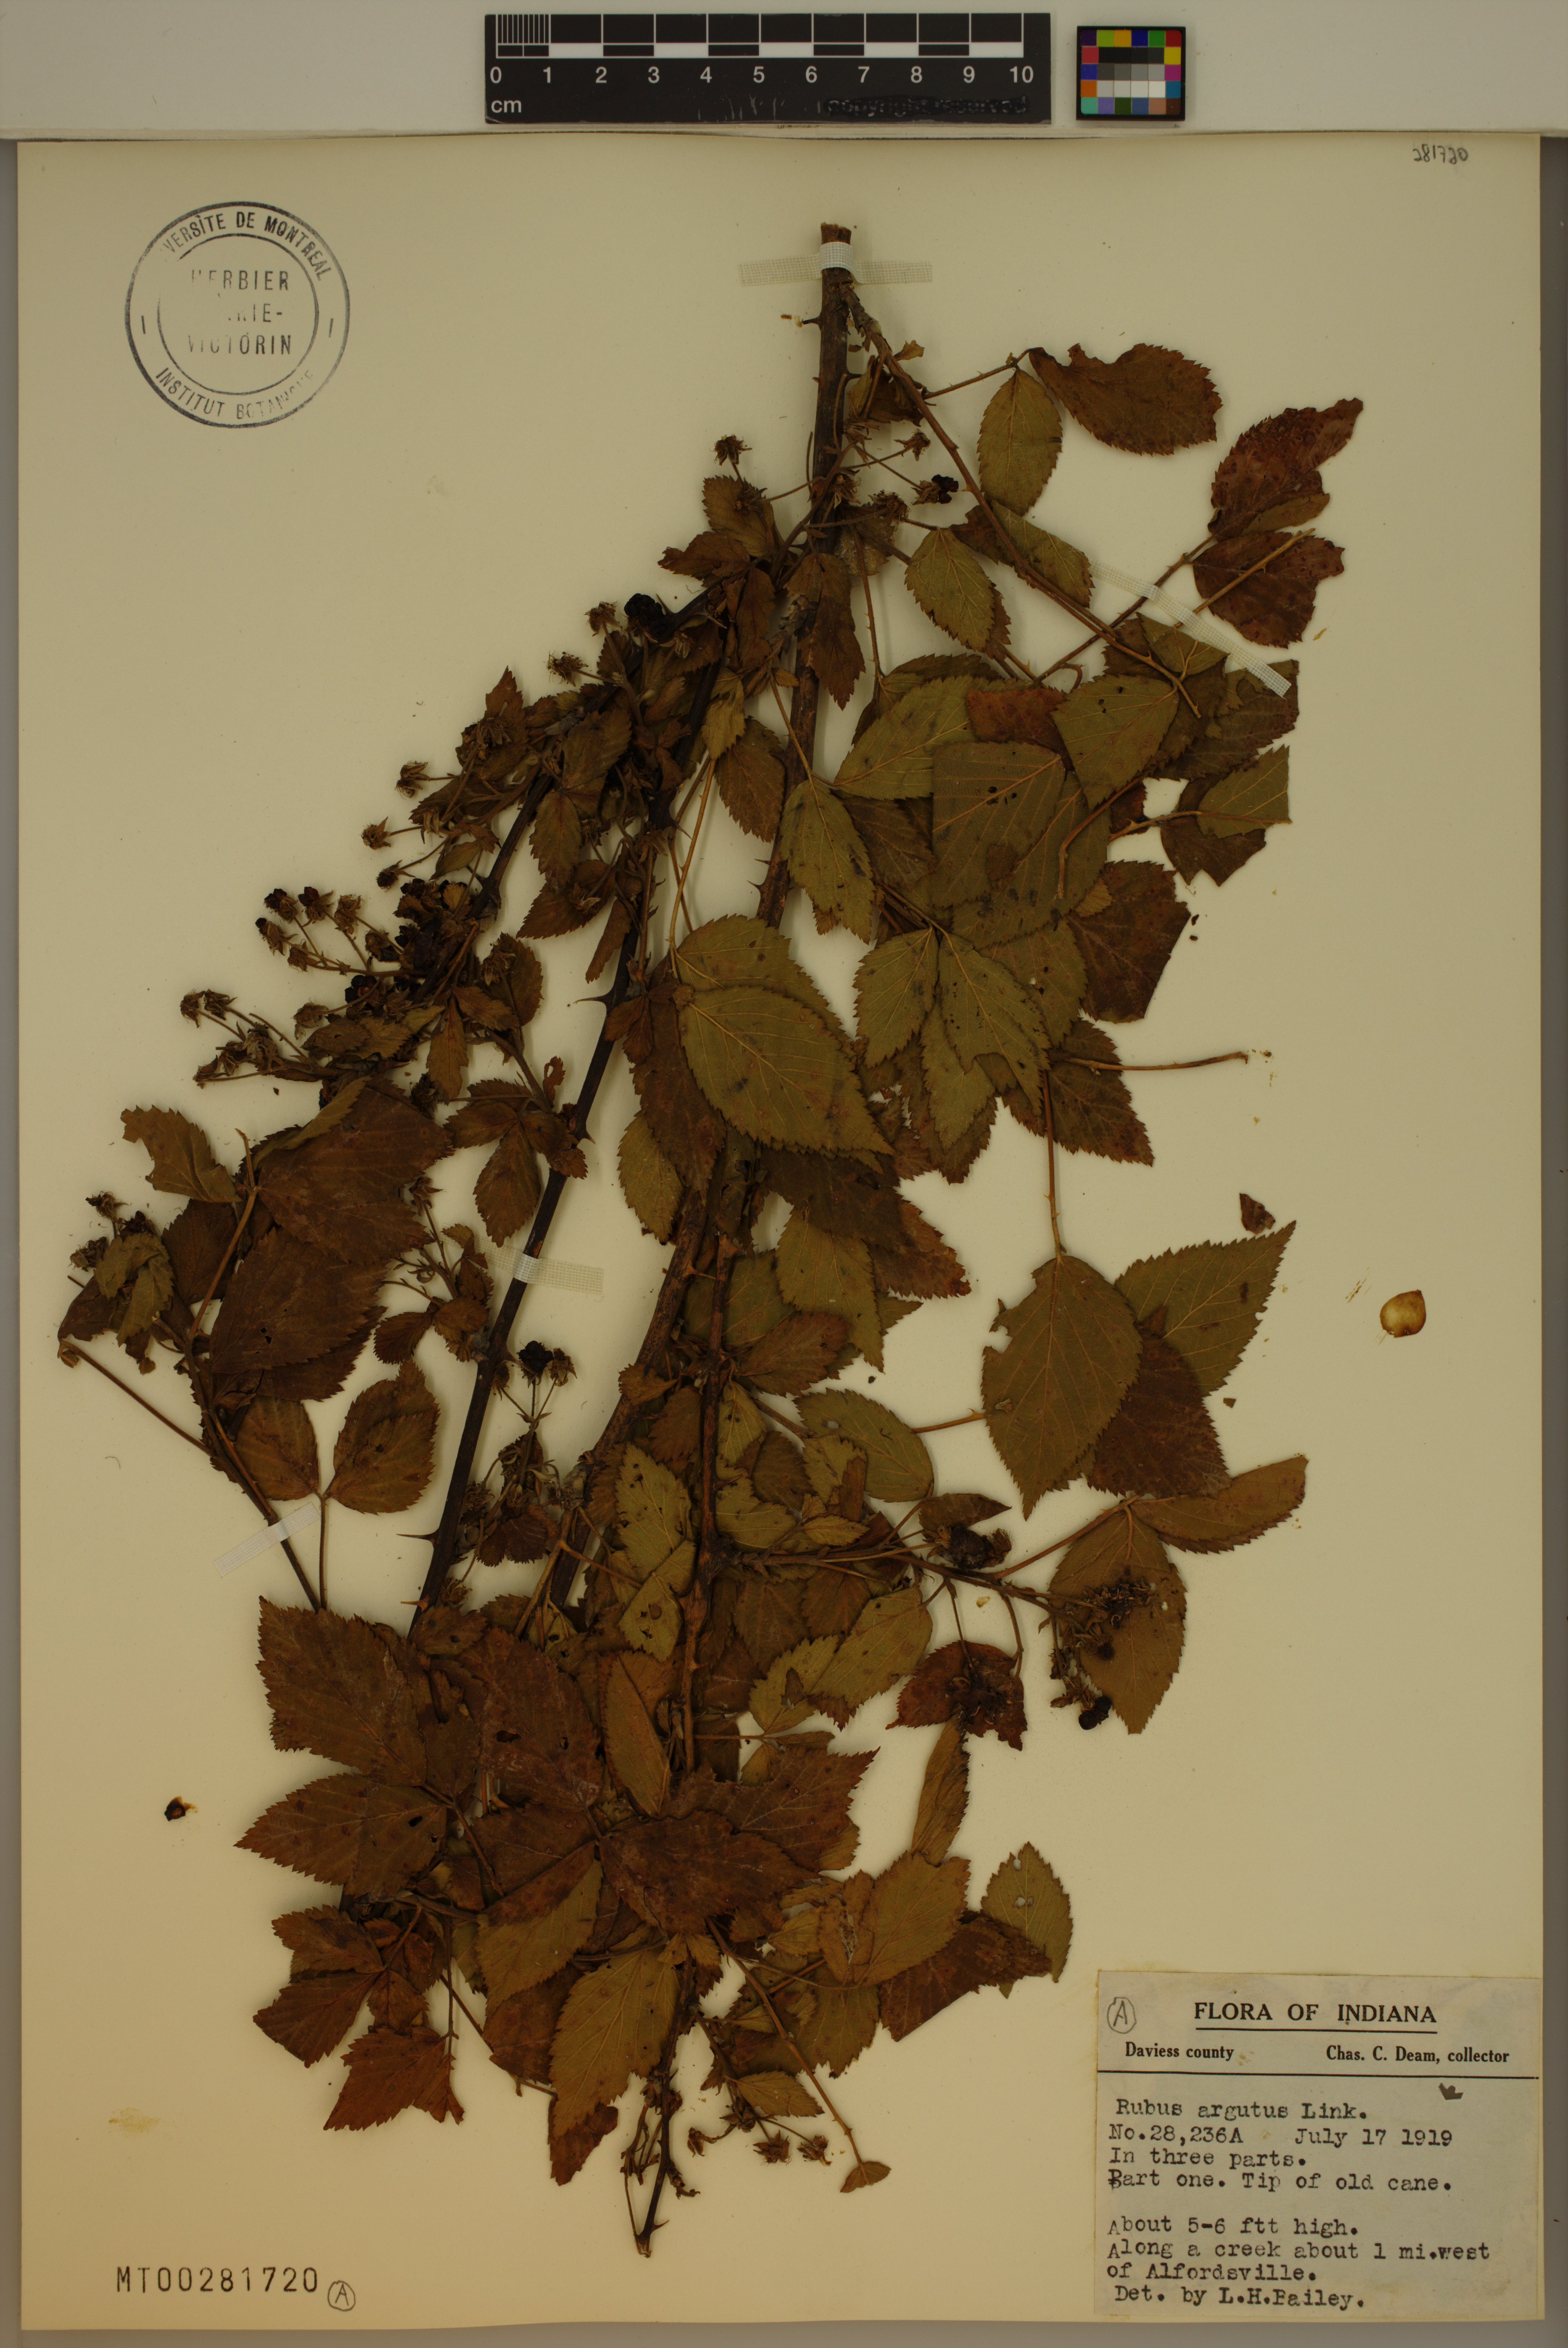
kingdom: Plantae
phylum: Tracheophyta
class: Magnoliopsida
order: Rosales
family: Rosaceae
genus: Rubus
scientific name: Rubus laudatus
